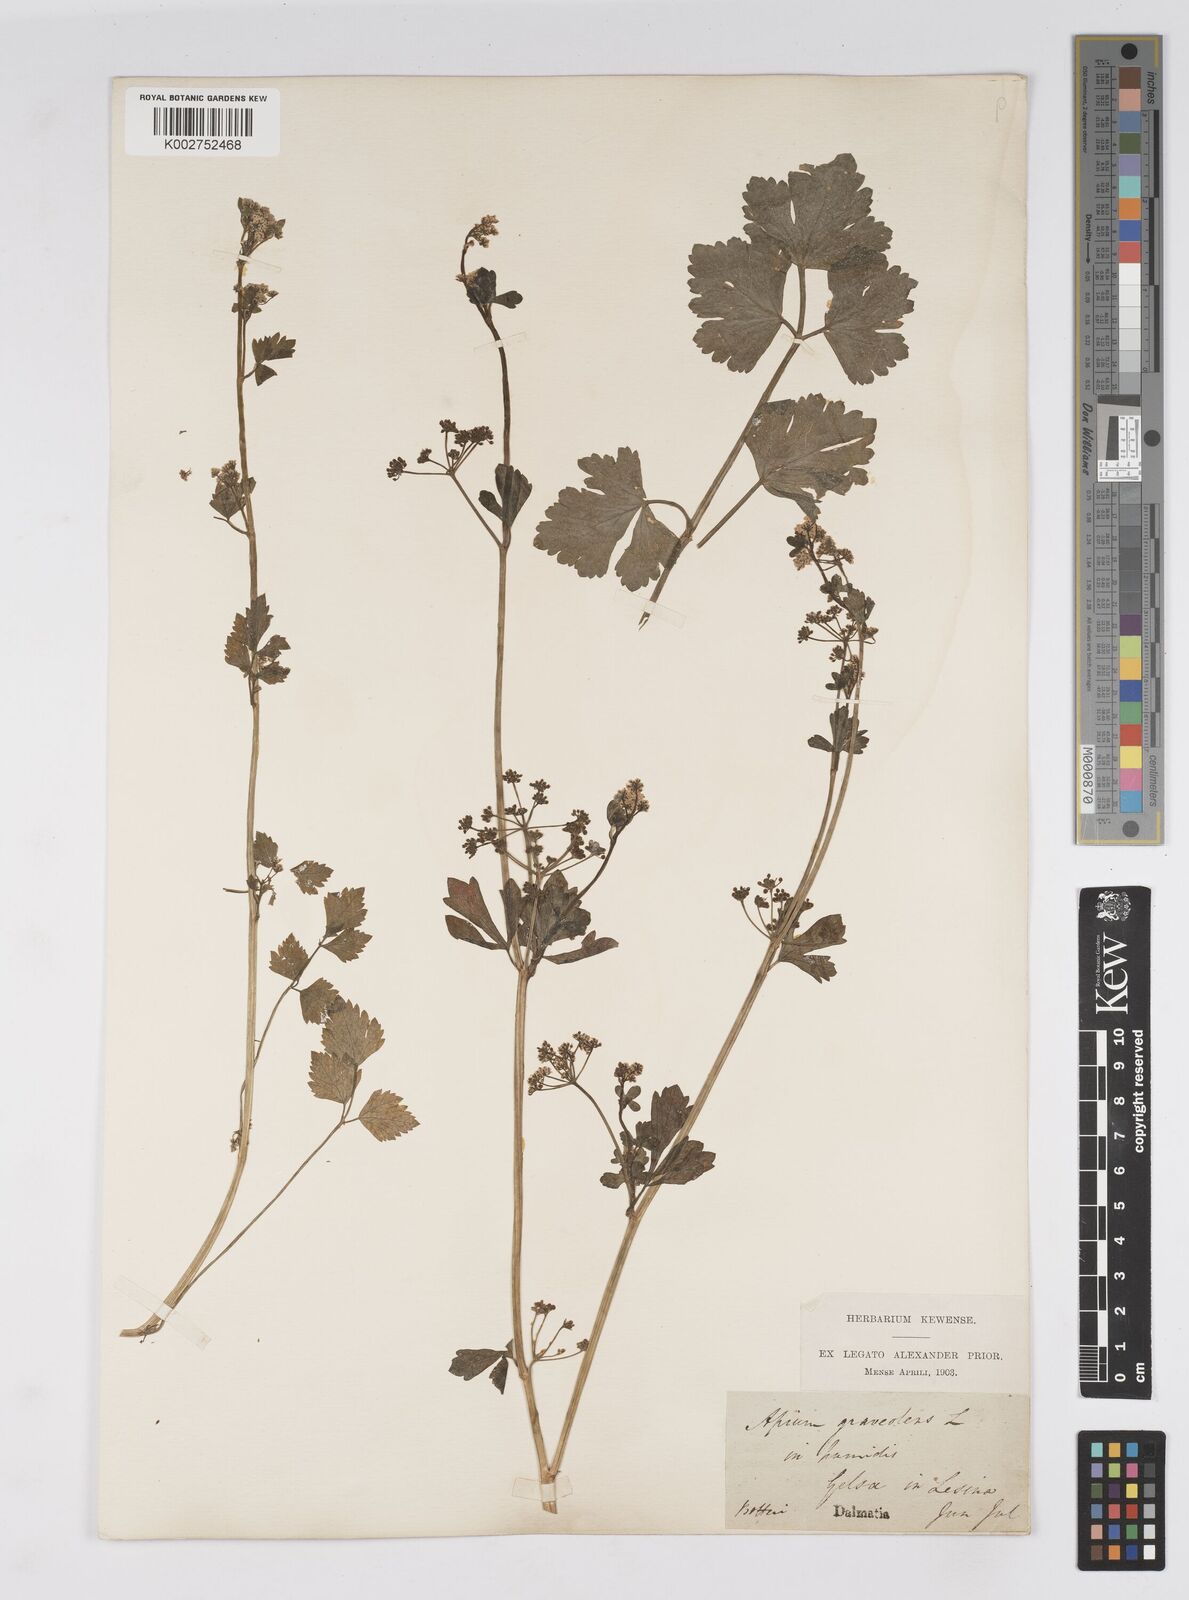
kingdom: Plantae
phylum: Tracheophyta
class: Magnoliopsida
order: Apiales
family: Apiaceae
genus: Apium
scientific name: Apium graveolens
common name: Wild celery
